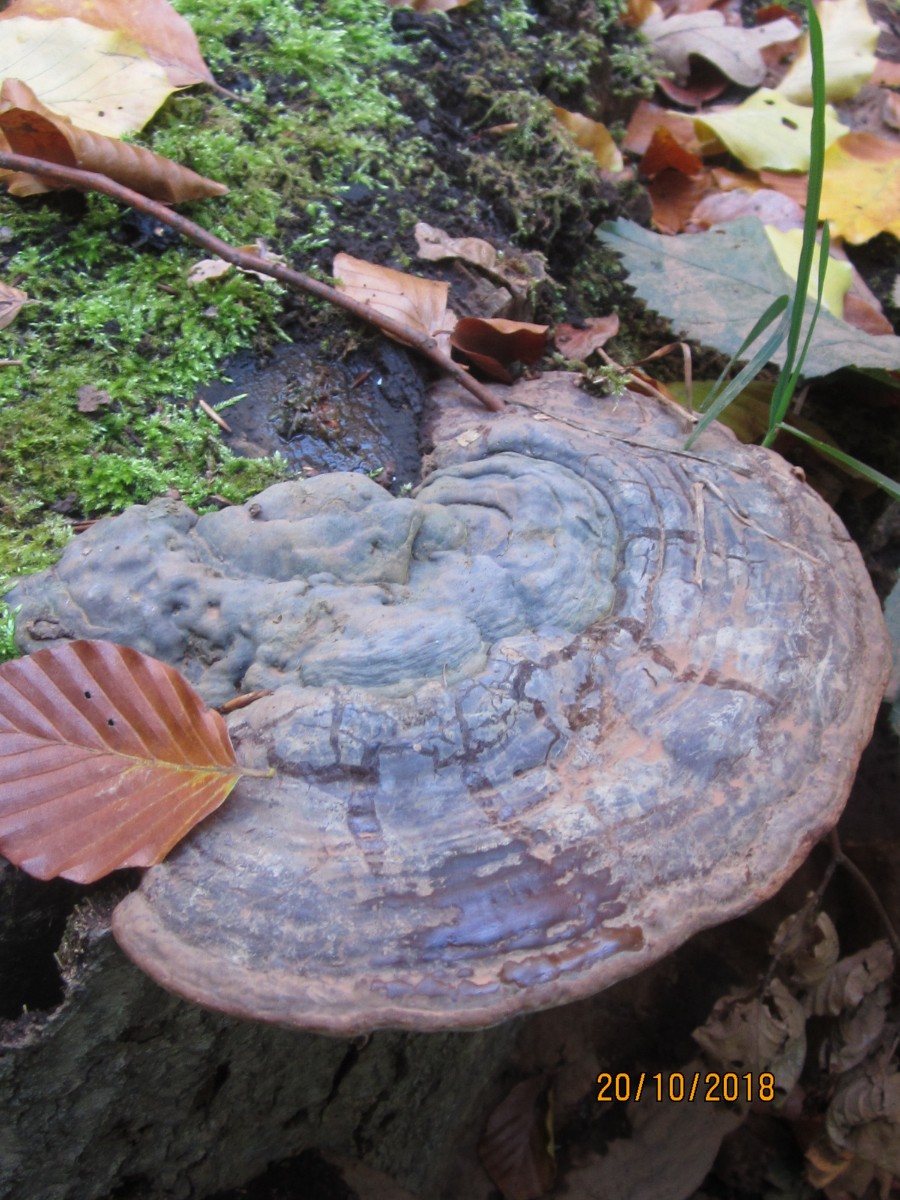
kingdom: Fungi
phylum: Basidiomycota
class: Agaricomycetes
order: Polyporales
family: Polyporaceae
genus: Ganoderma
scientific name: Ganoderma pfeifferi
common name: kobberrød lakporesvamp
